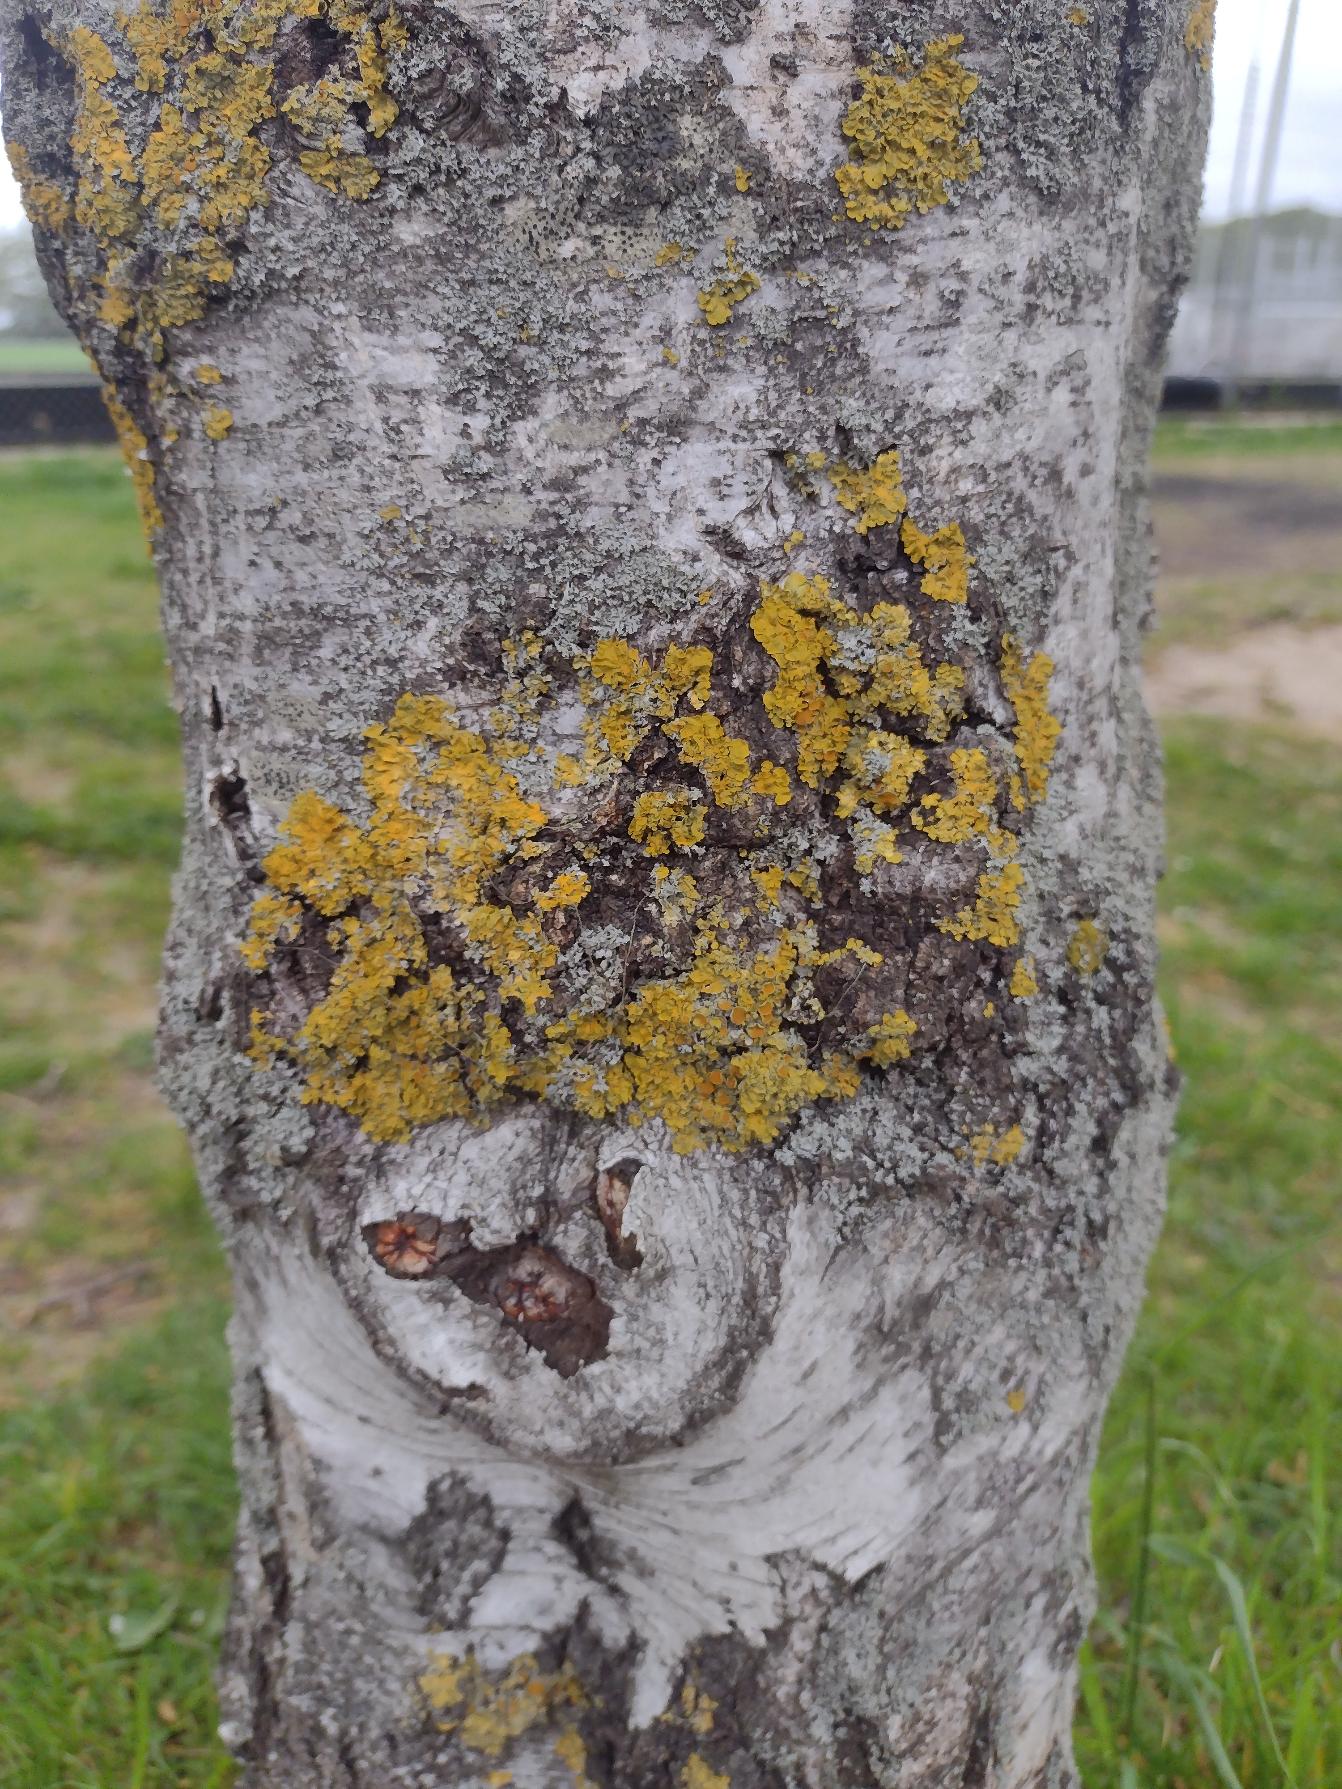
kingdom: Fungi
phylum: Ascomycota
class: Lecanoromycetes
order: Teloschistales
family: Teloschistaceae
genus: Xanthoria
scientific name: Xanthoria parietina
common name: Almindelig væggelav
